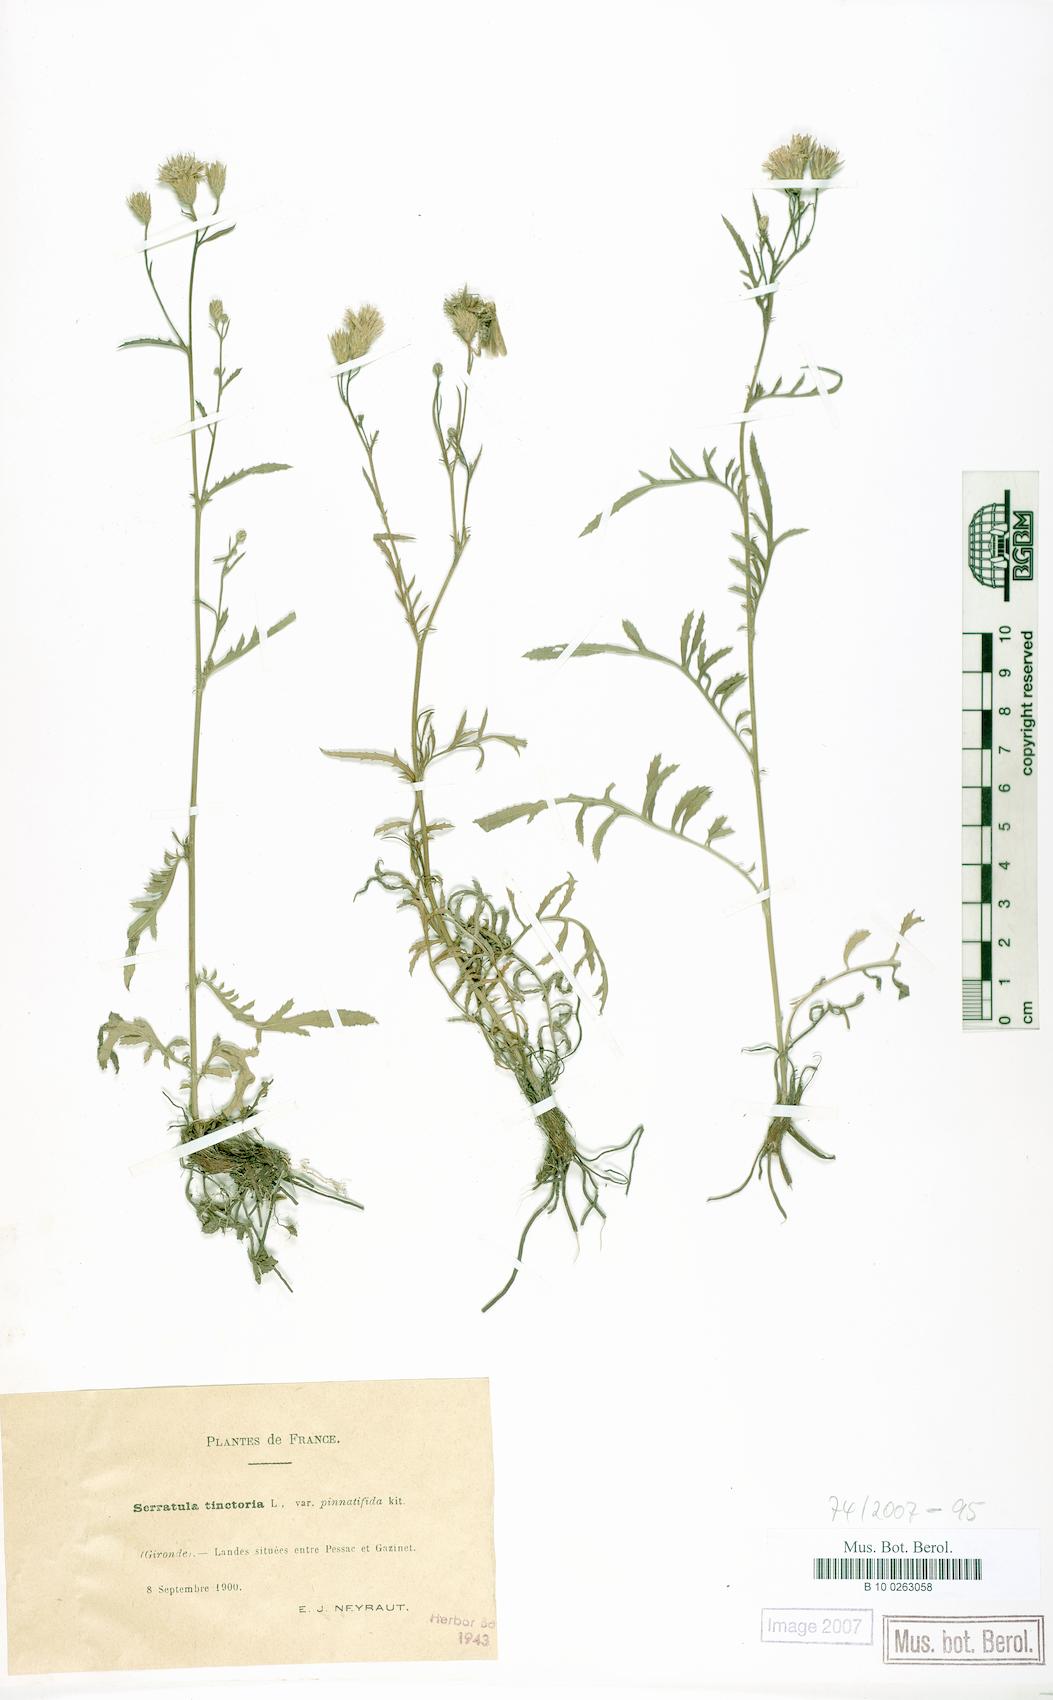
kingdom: Plantae
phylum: Tracheophyta
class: Magnoliopsida
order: Asterales
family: Asteraceae
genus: Serratula
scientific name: Serratula tinctoria
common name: Saw-wort
